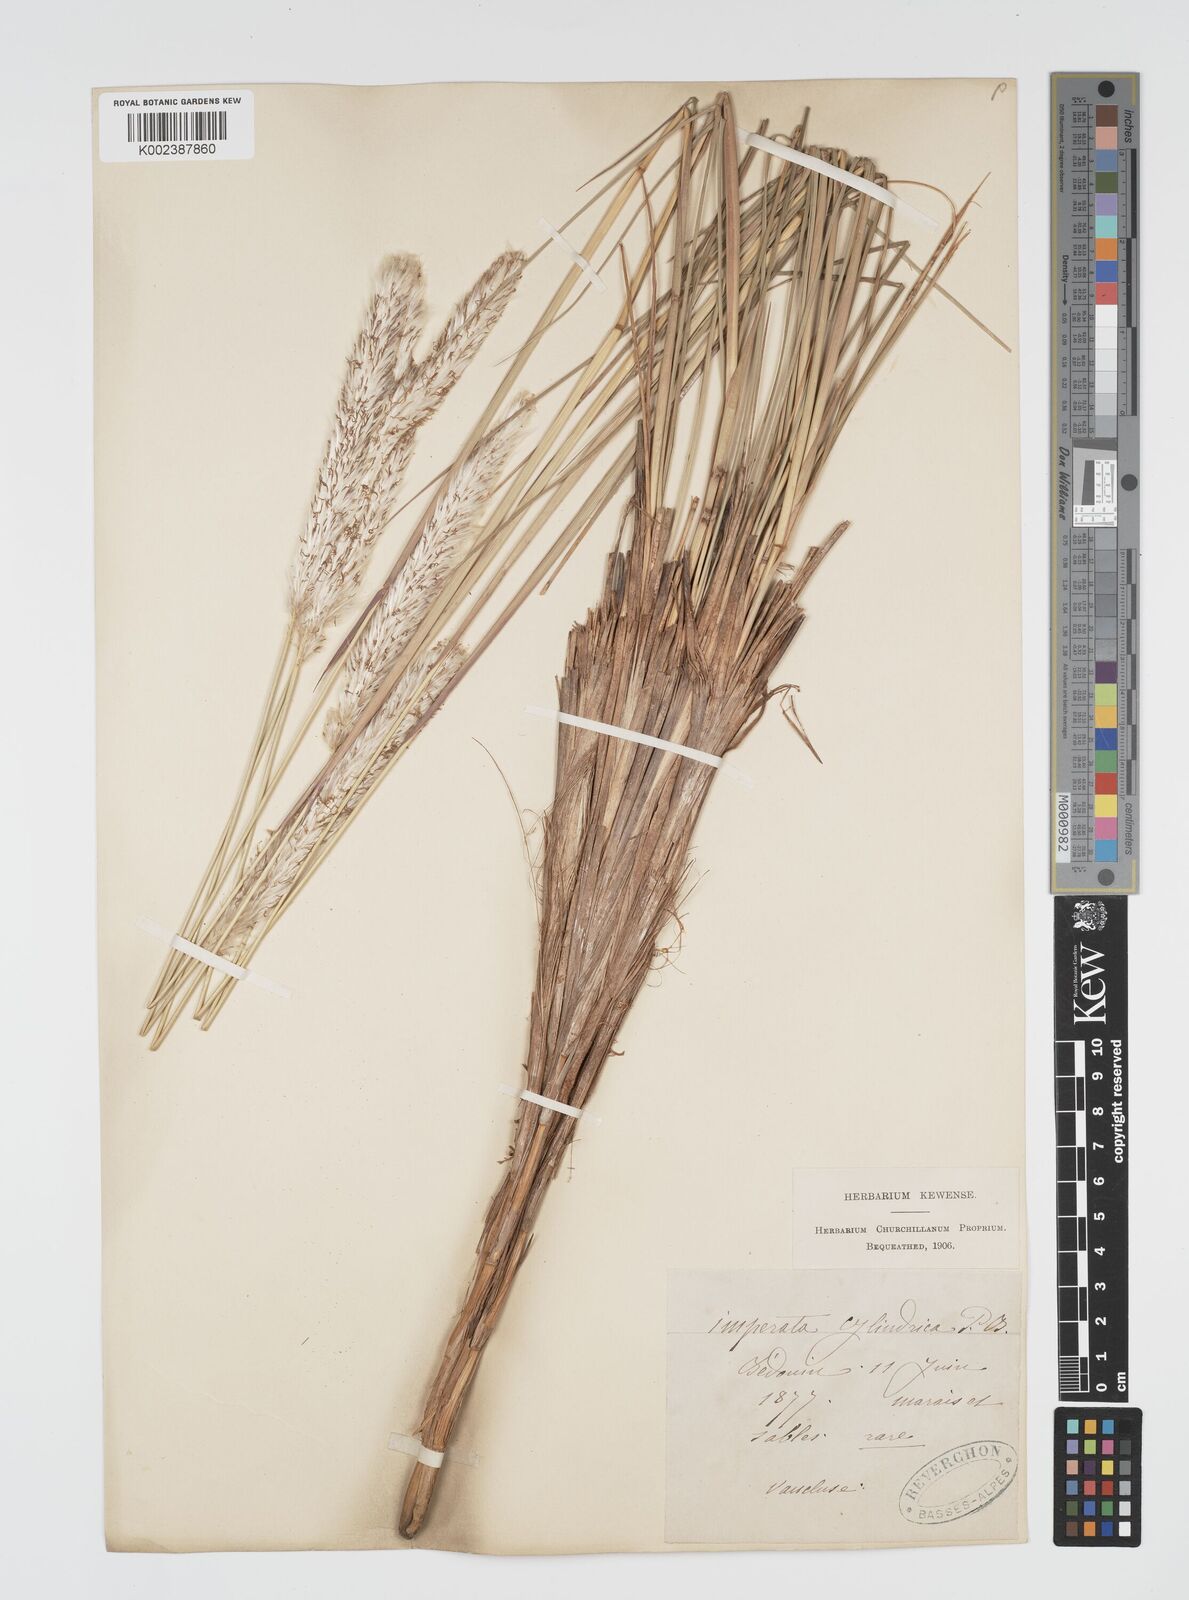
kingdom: Plantae
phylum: Tracheophyta
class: Liliopsida
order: Poales
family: Poaceae
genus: Imperata
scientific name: Imperata cylindrica
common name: Cogongrass
